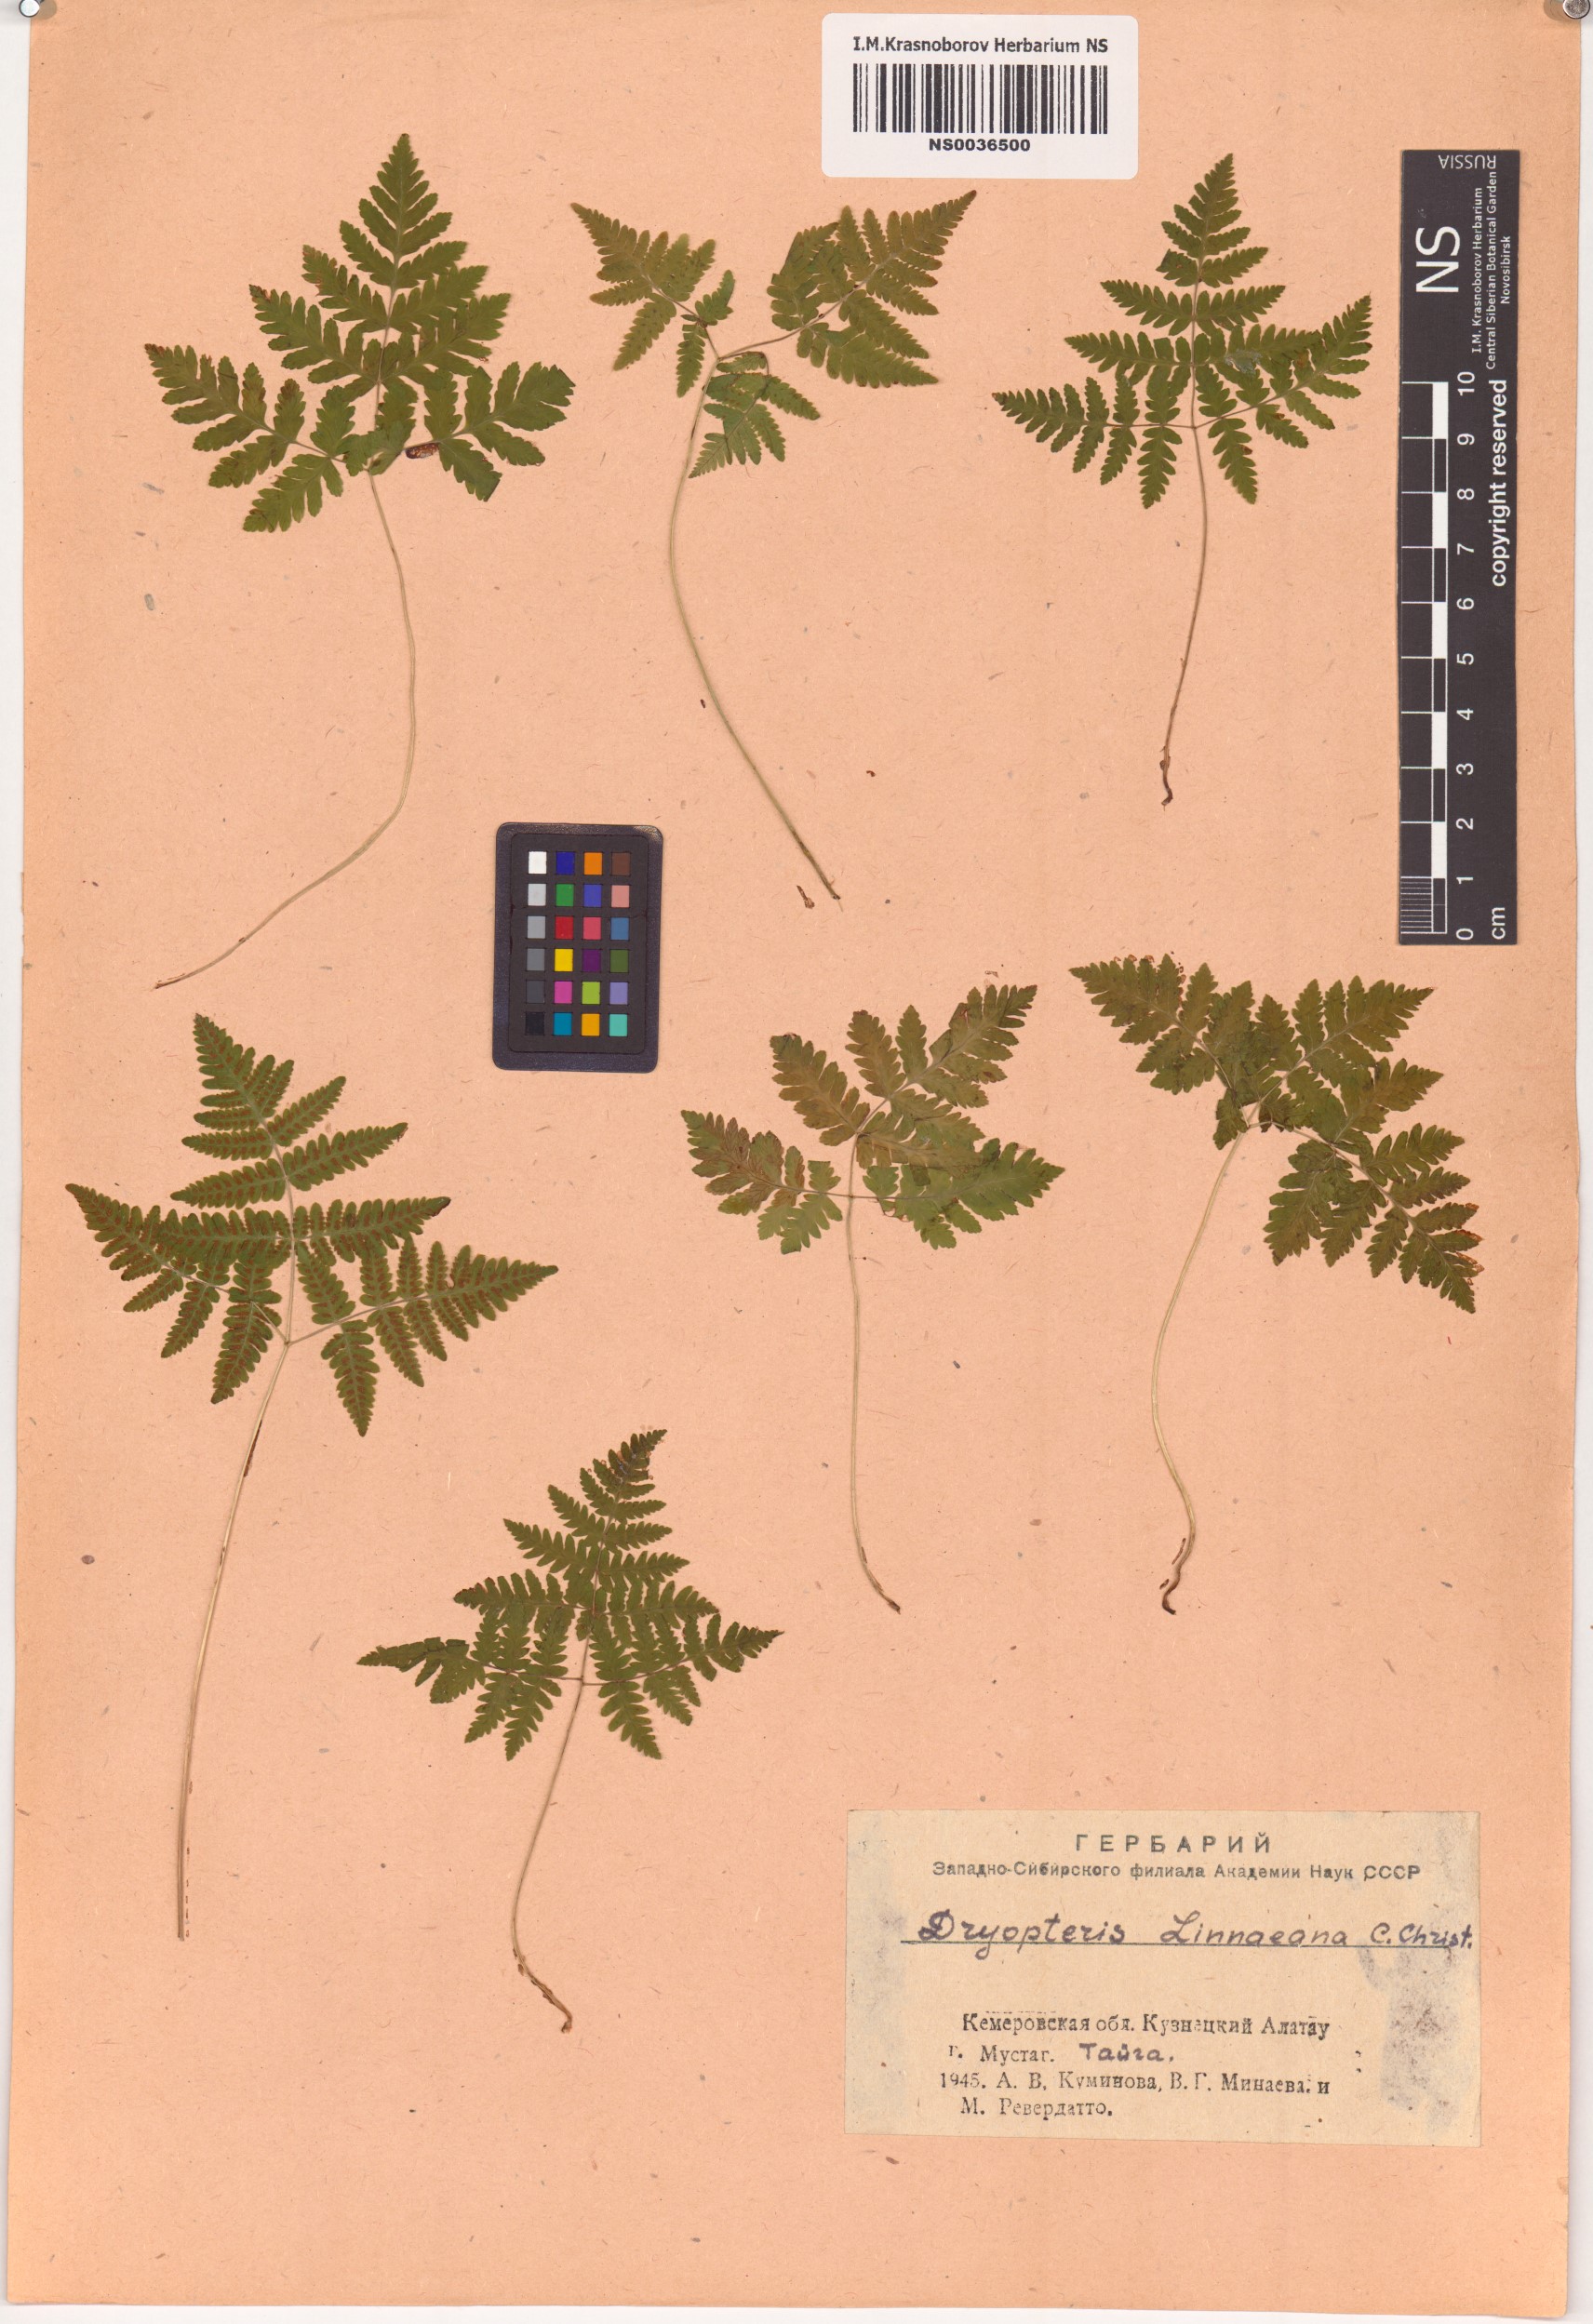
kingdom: Plantae
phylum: Tracheophyta
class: Polypodiopsida
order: Polypodiales
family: Cystopteridaceae
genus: Gymnocarpium
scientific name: Gymnocarpium dryopteris
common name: Oak fern
